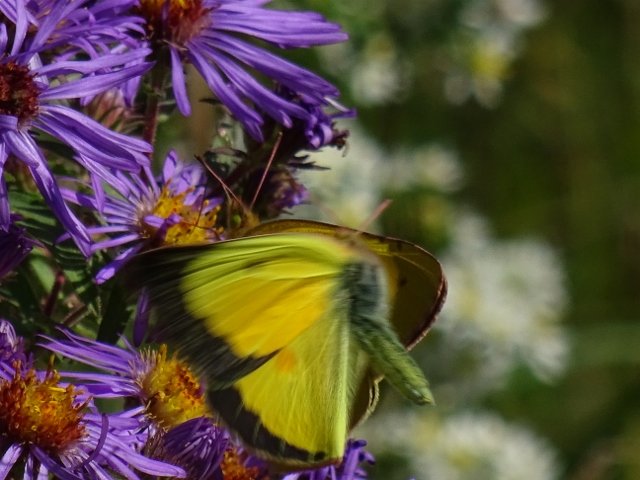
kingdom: Animalia
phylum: Arthropoda
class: Insecta
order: Lepidoptera
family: Pieridae
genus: Colias
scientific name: Colias eurytheme
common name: Orange Sulphur
